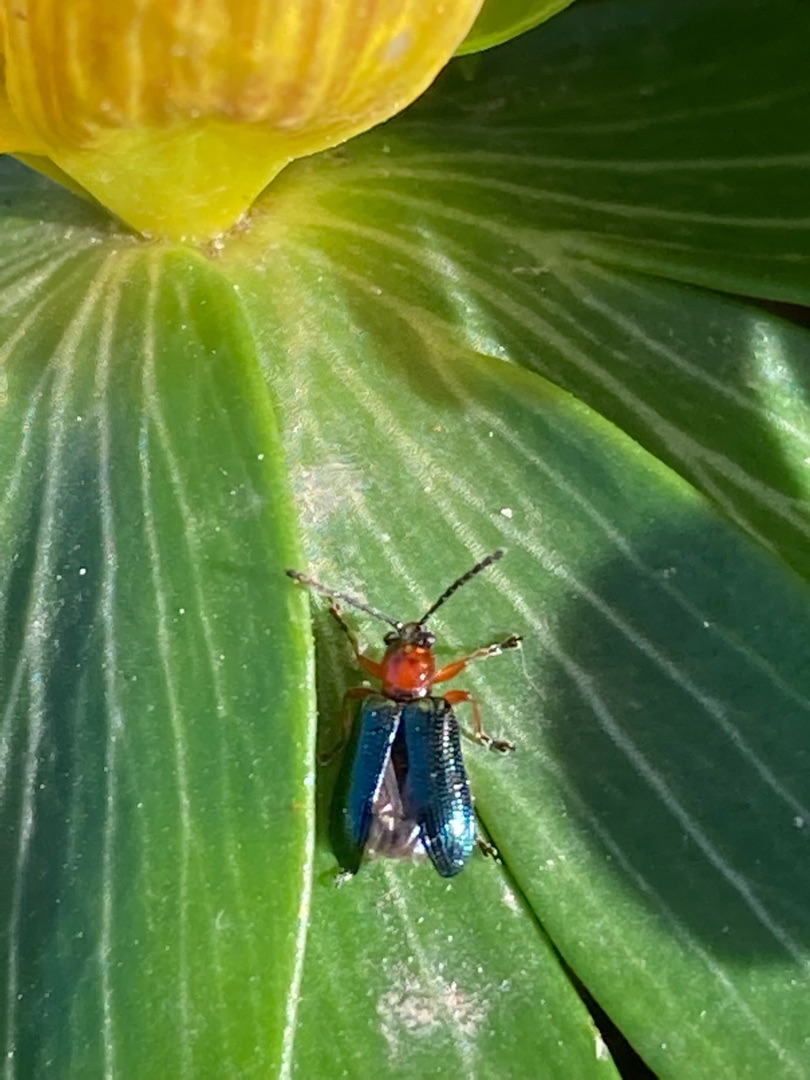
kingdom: Animalia
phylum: Arthropoda
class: Insecta
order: Coleoptera
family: Chrysomelidae
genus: Oulema
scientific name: Oulema
